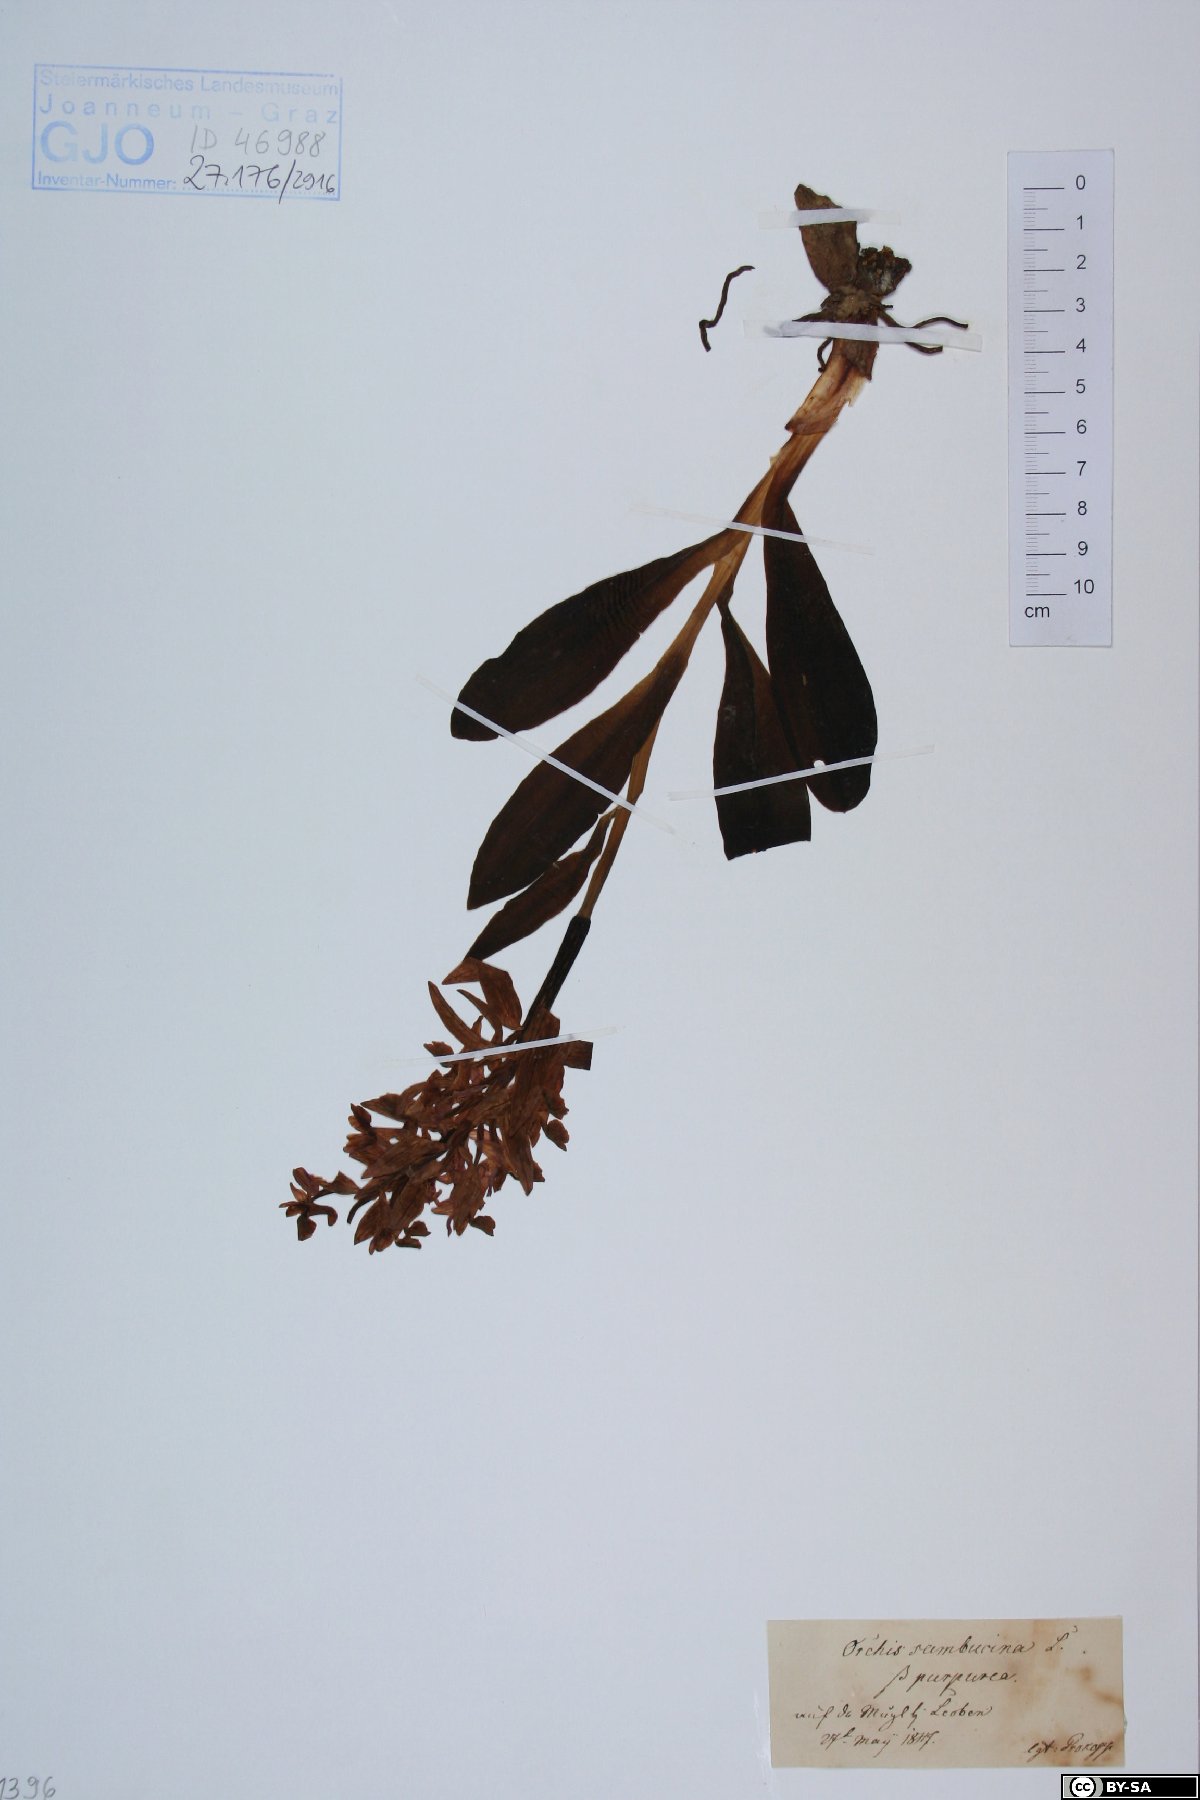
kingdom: Plantae
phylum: Tracheophyta
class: Liliopsida
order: Asparagales
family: Orchidaceae
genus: Dactylorhiza
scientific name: Dactylorhiza sambucina
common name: Elder-flowered orchid
